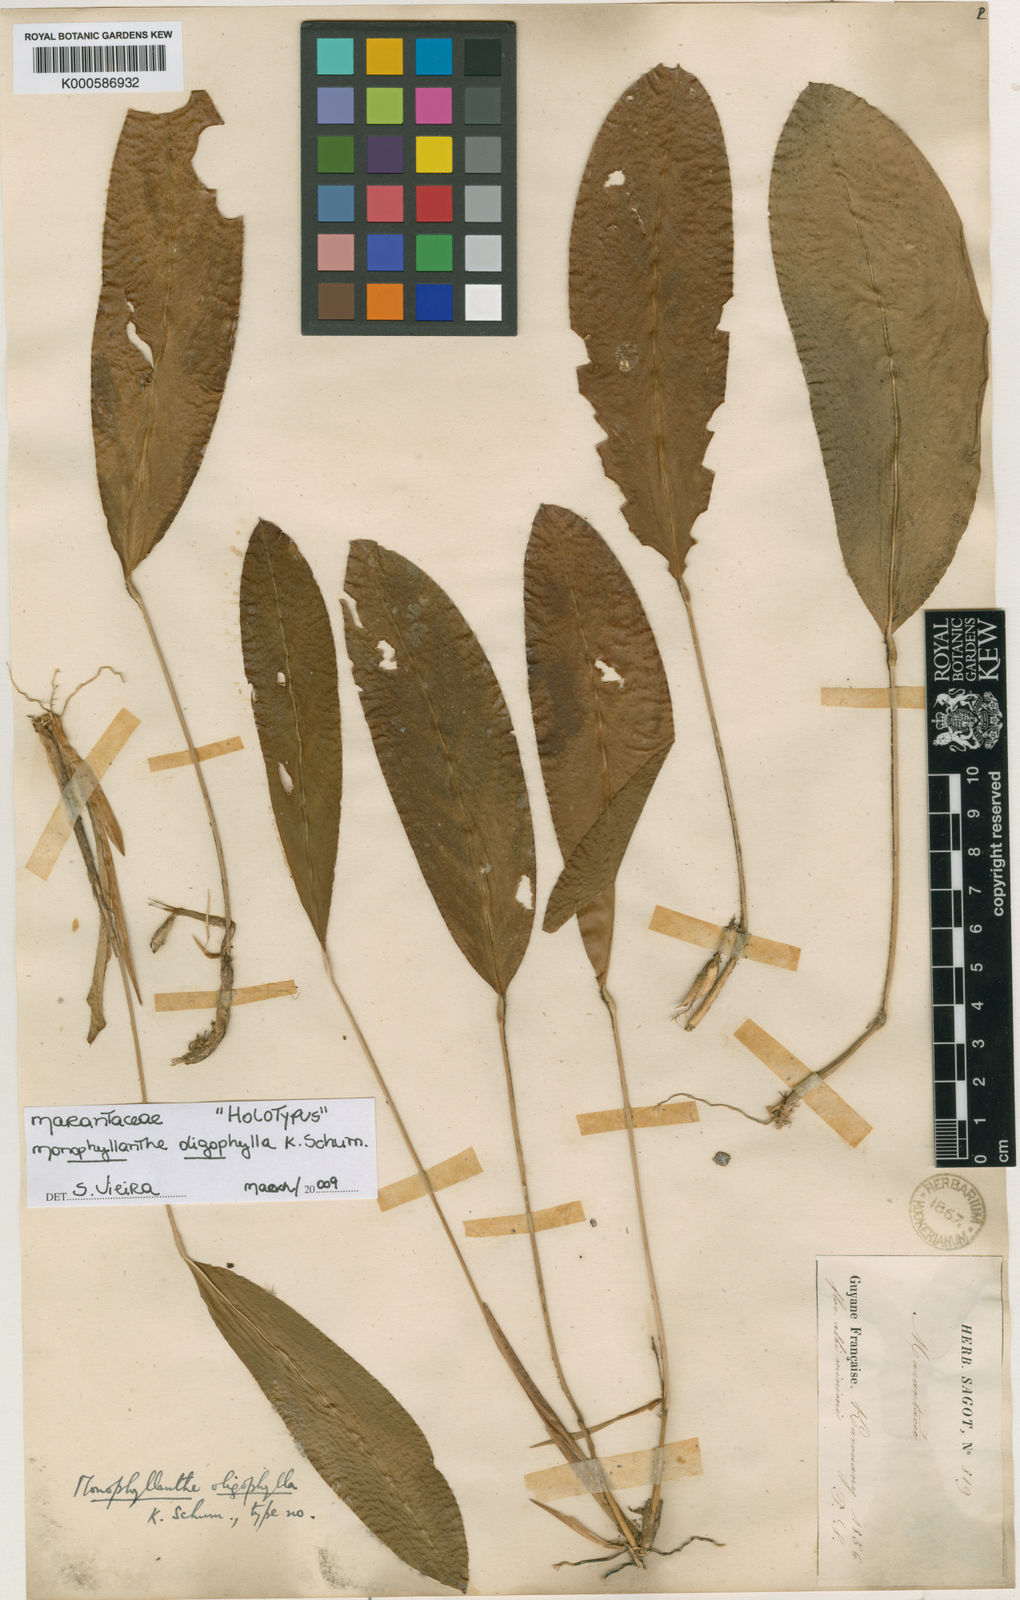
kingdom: Plantae
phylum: Tracheophyta
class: Liliopsida
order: Zingiberales
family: Marantaceae
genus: Monophyllanthe
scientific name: Monophyllanthe oligophylla
